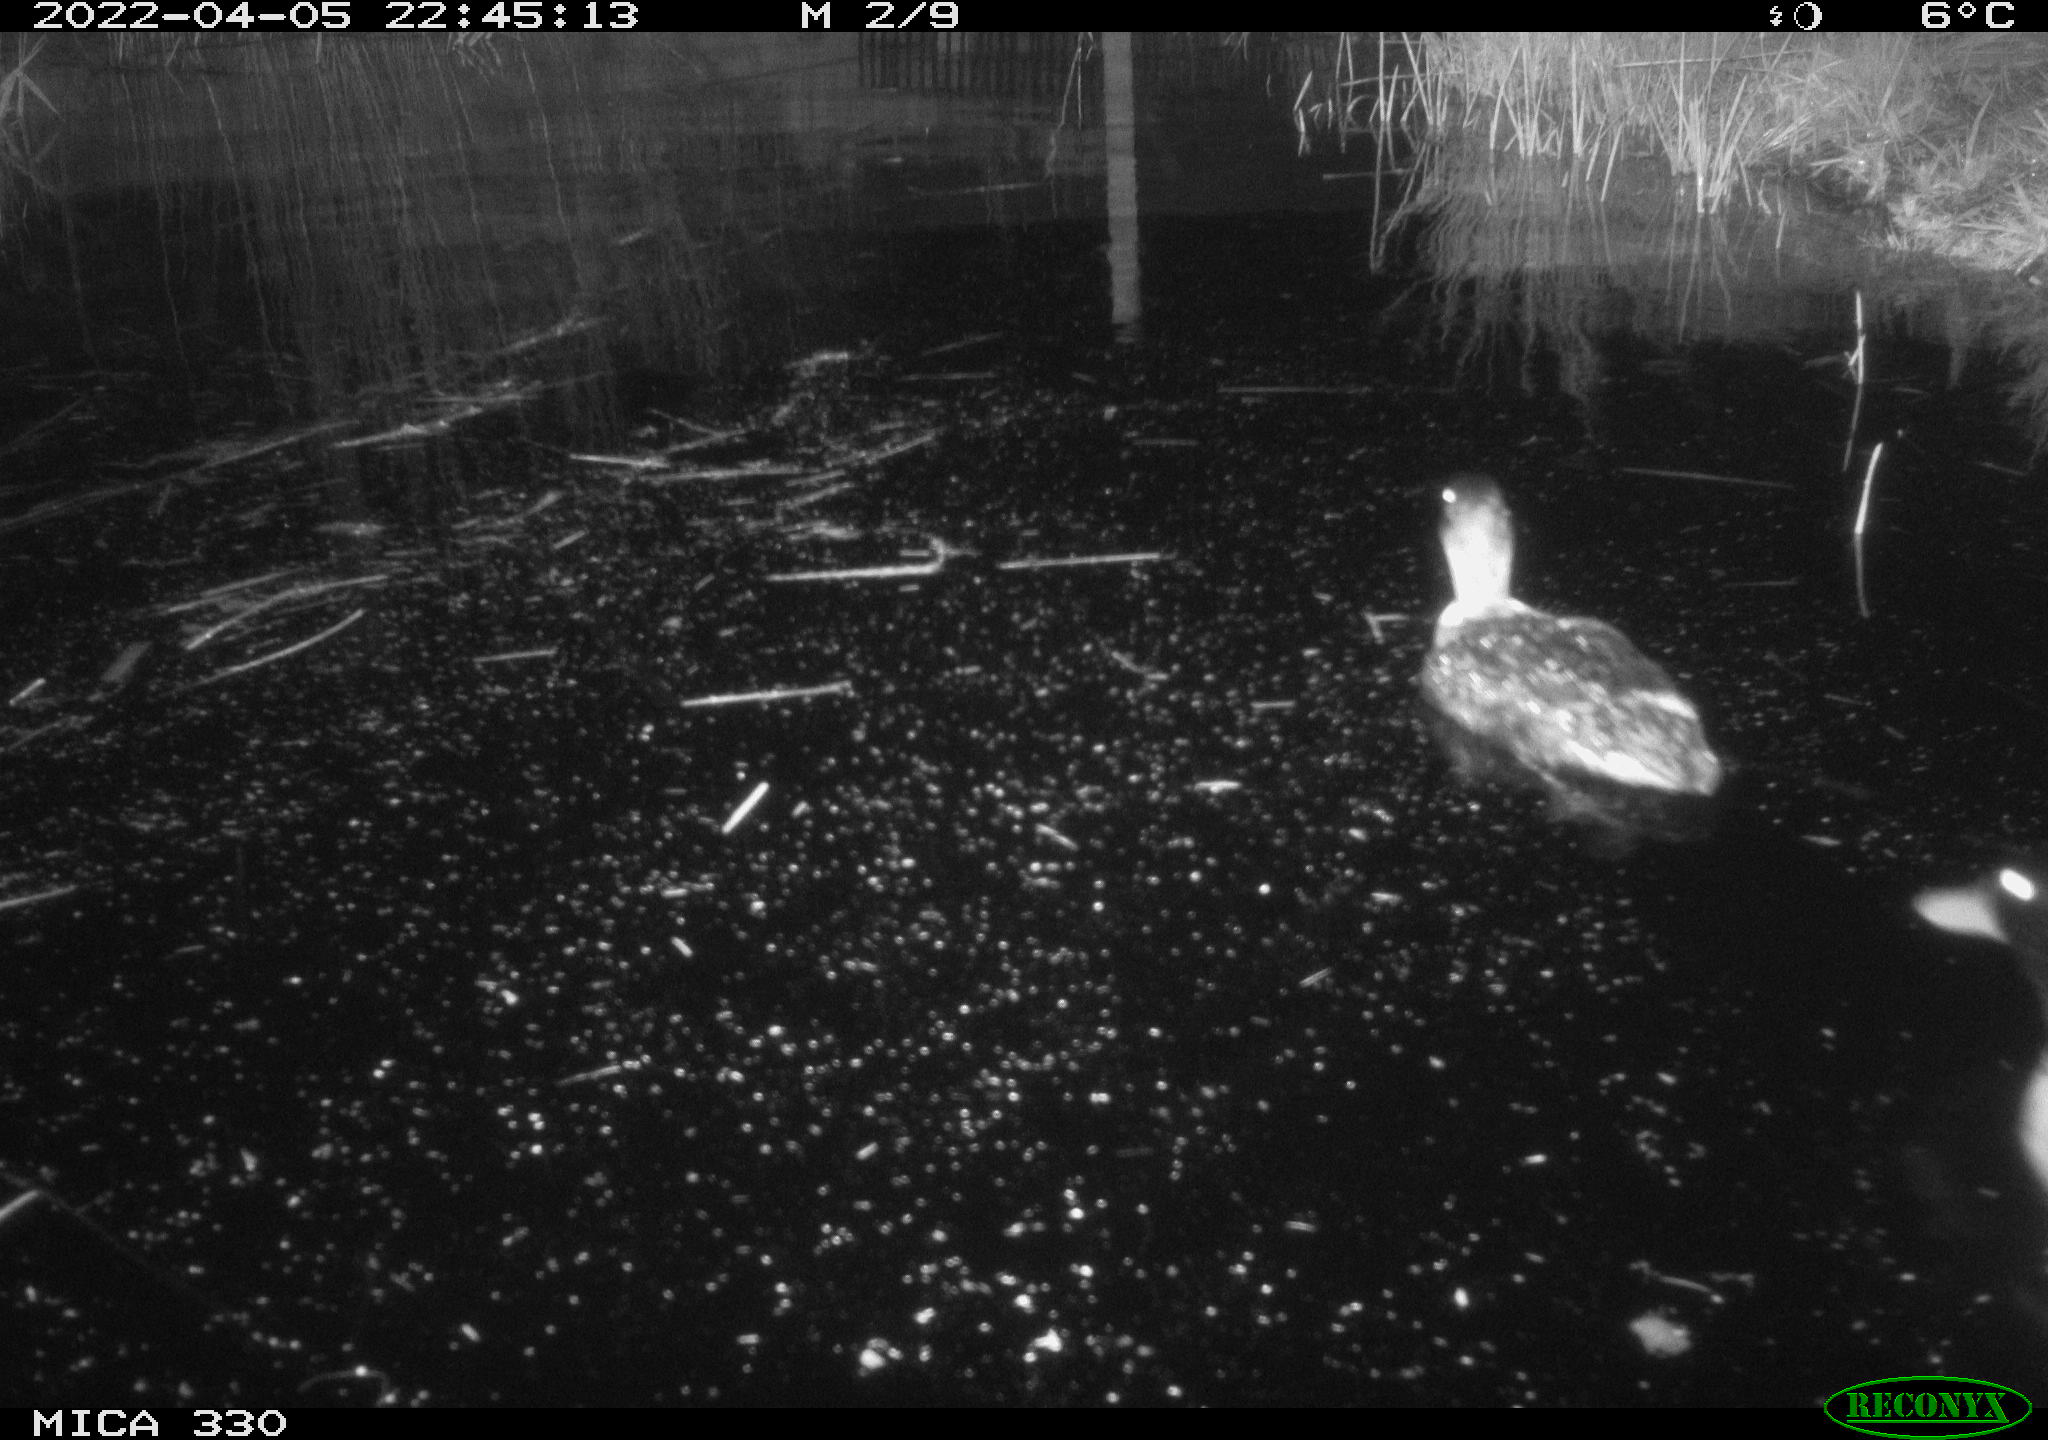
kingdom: Animalia
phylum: Chordata
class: Aves
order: Anseriformes
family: Anatidae
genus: Anas
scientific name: Anas platyrhynchos
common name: Mallard
